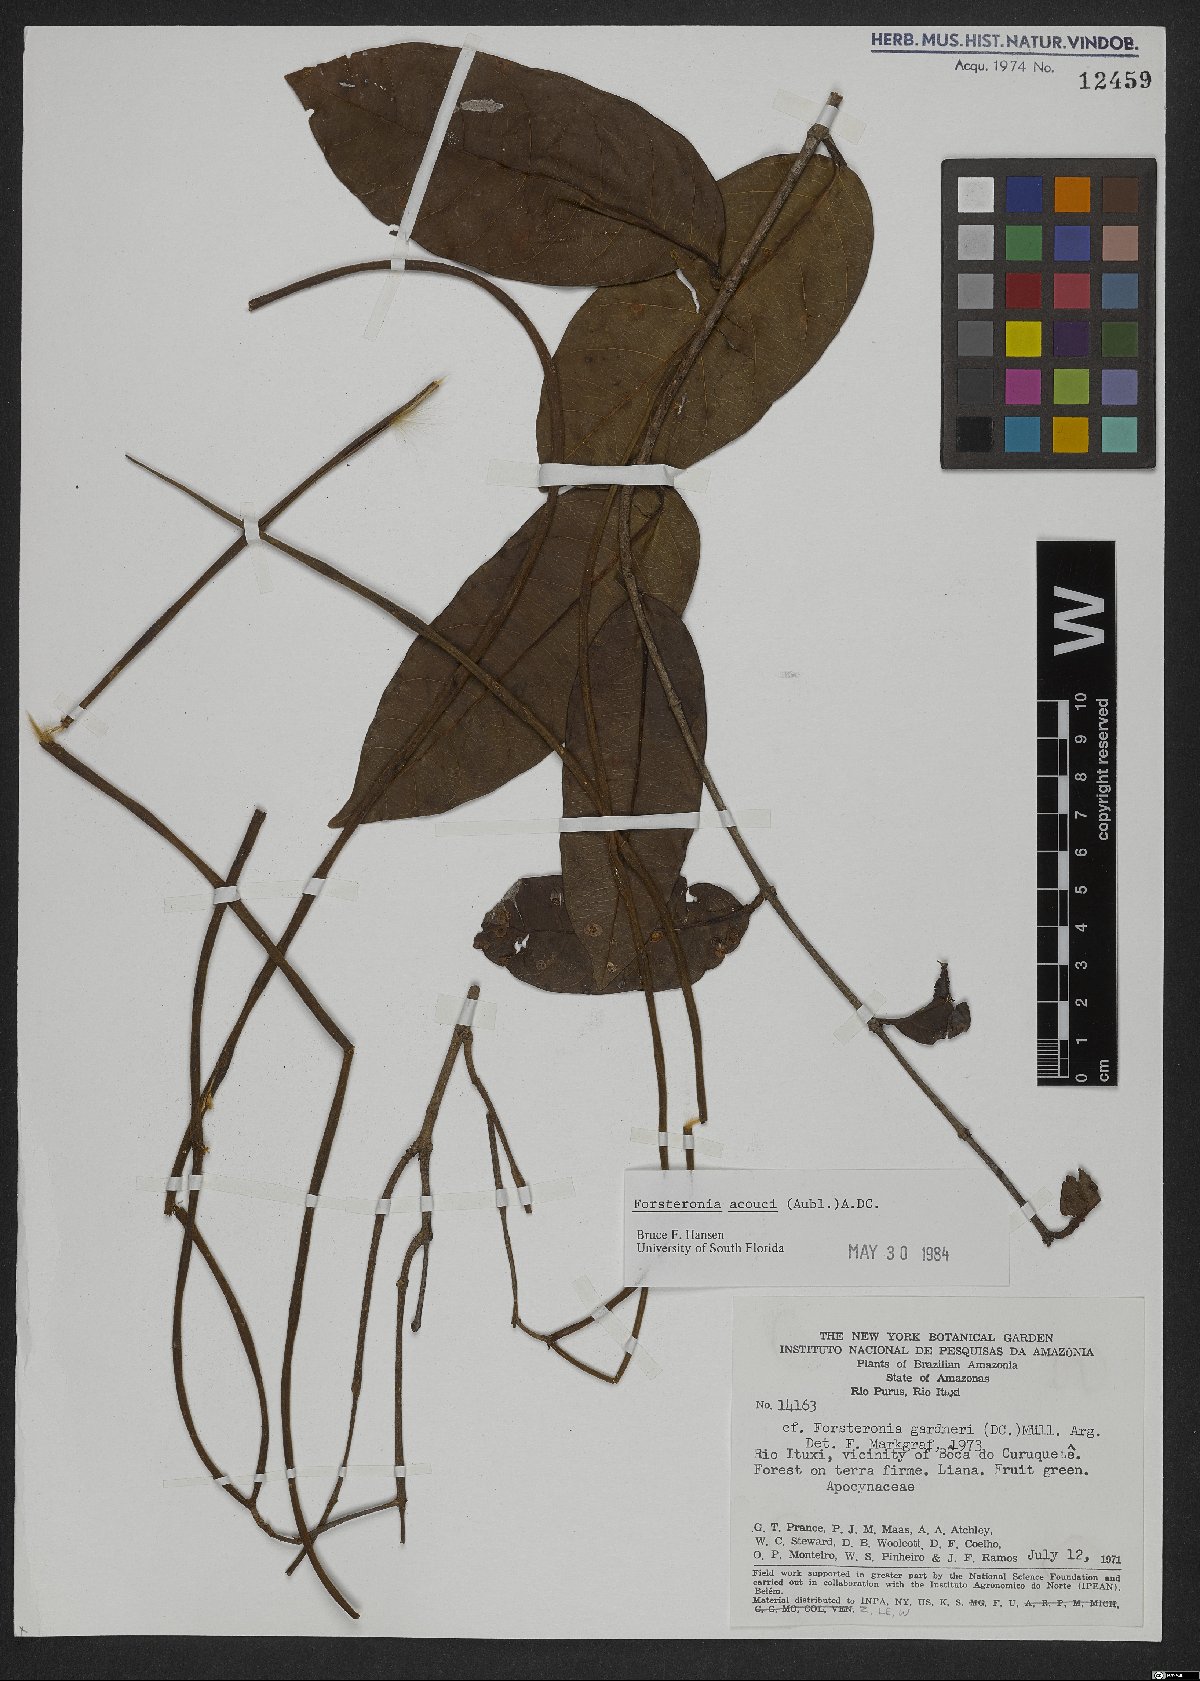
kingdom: Plantae
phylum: Tracheophyta
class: Magnoliopsida
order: Gentianales
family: Apocynaceae
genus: Forsteronia
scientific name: Forsteronia acouci
